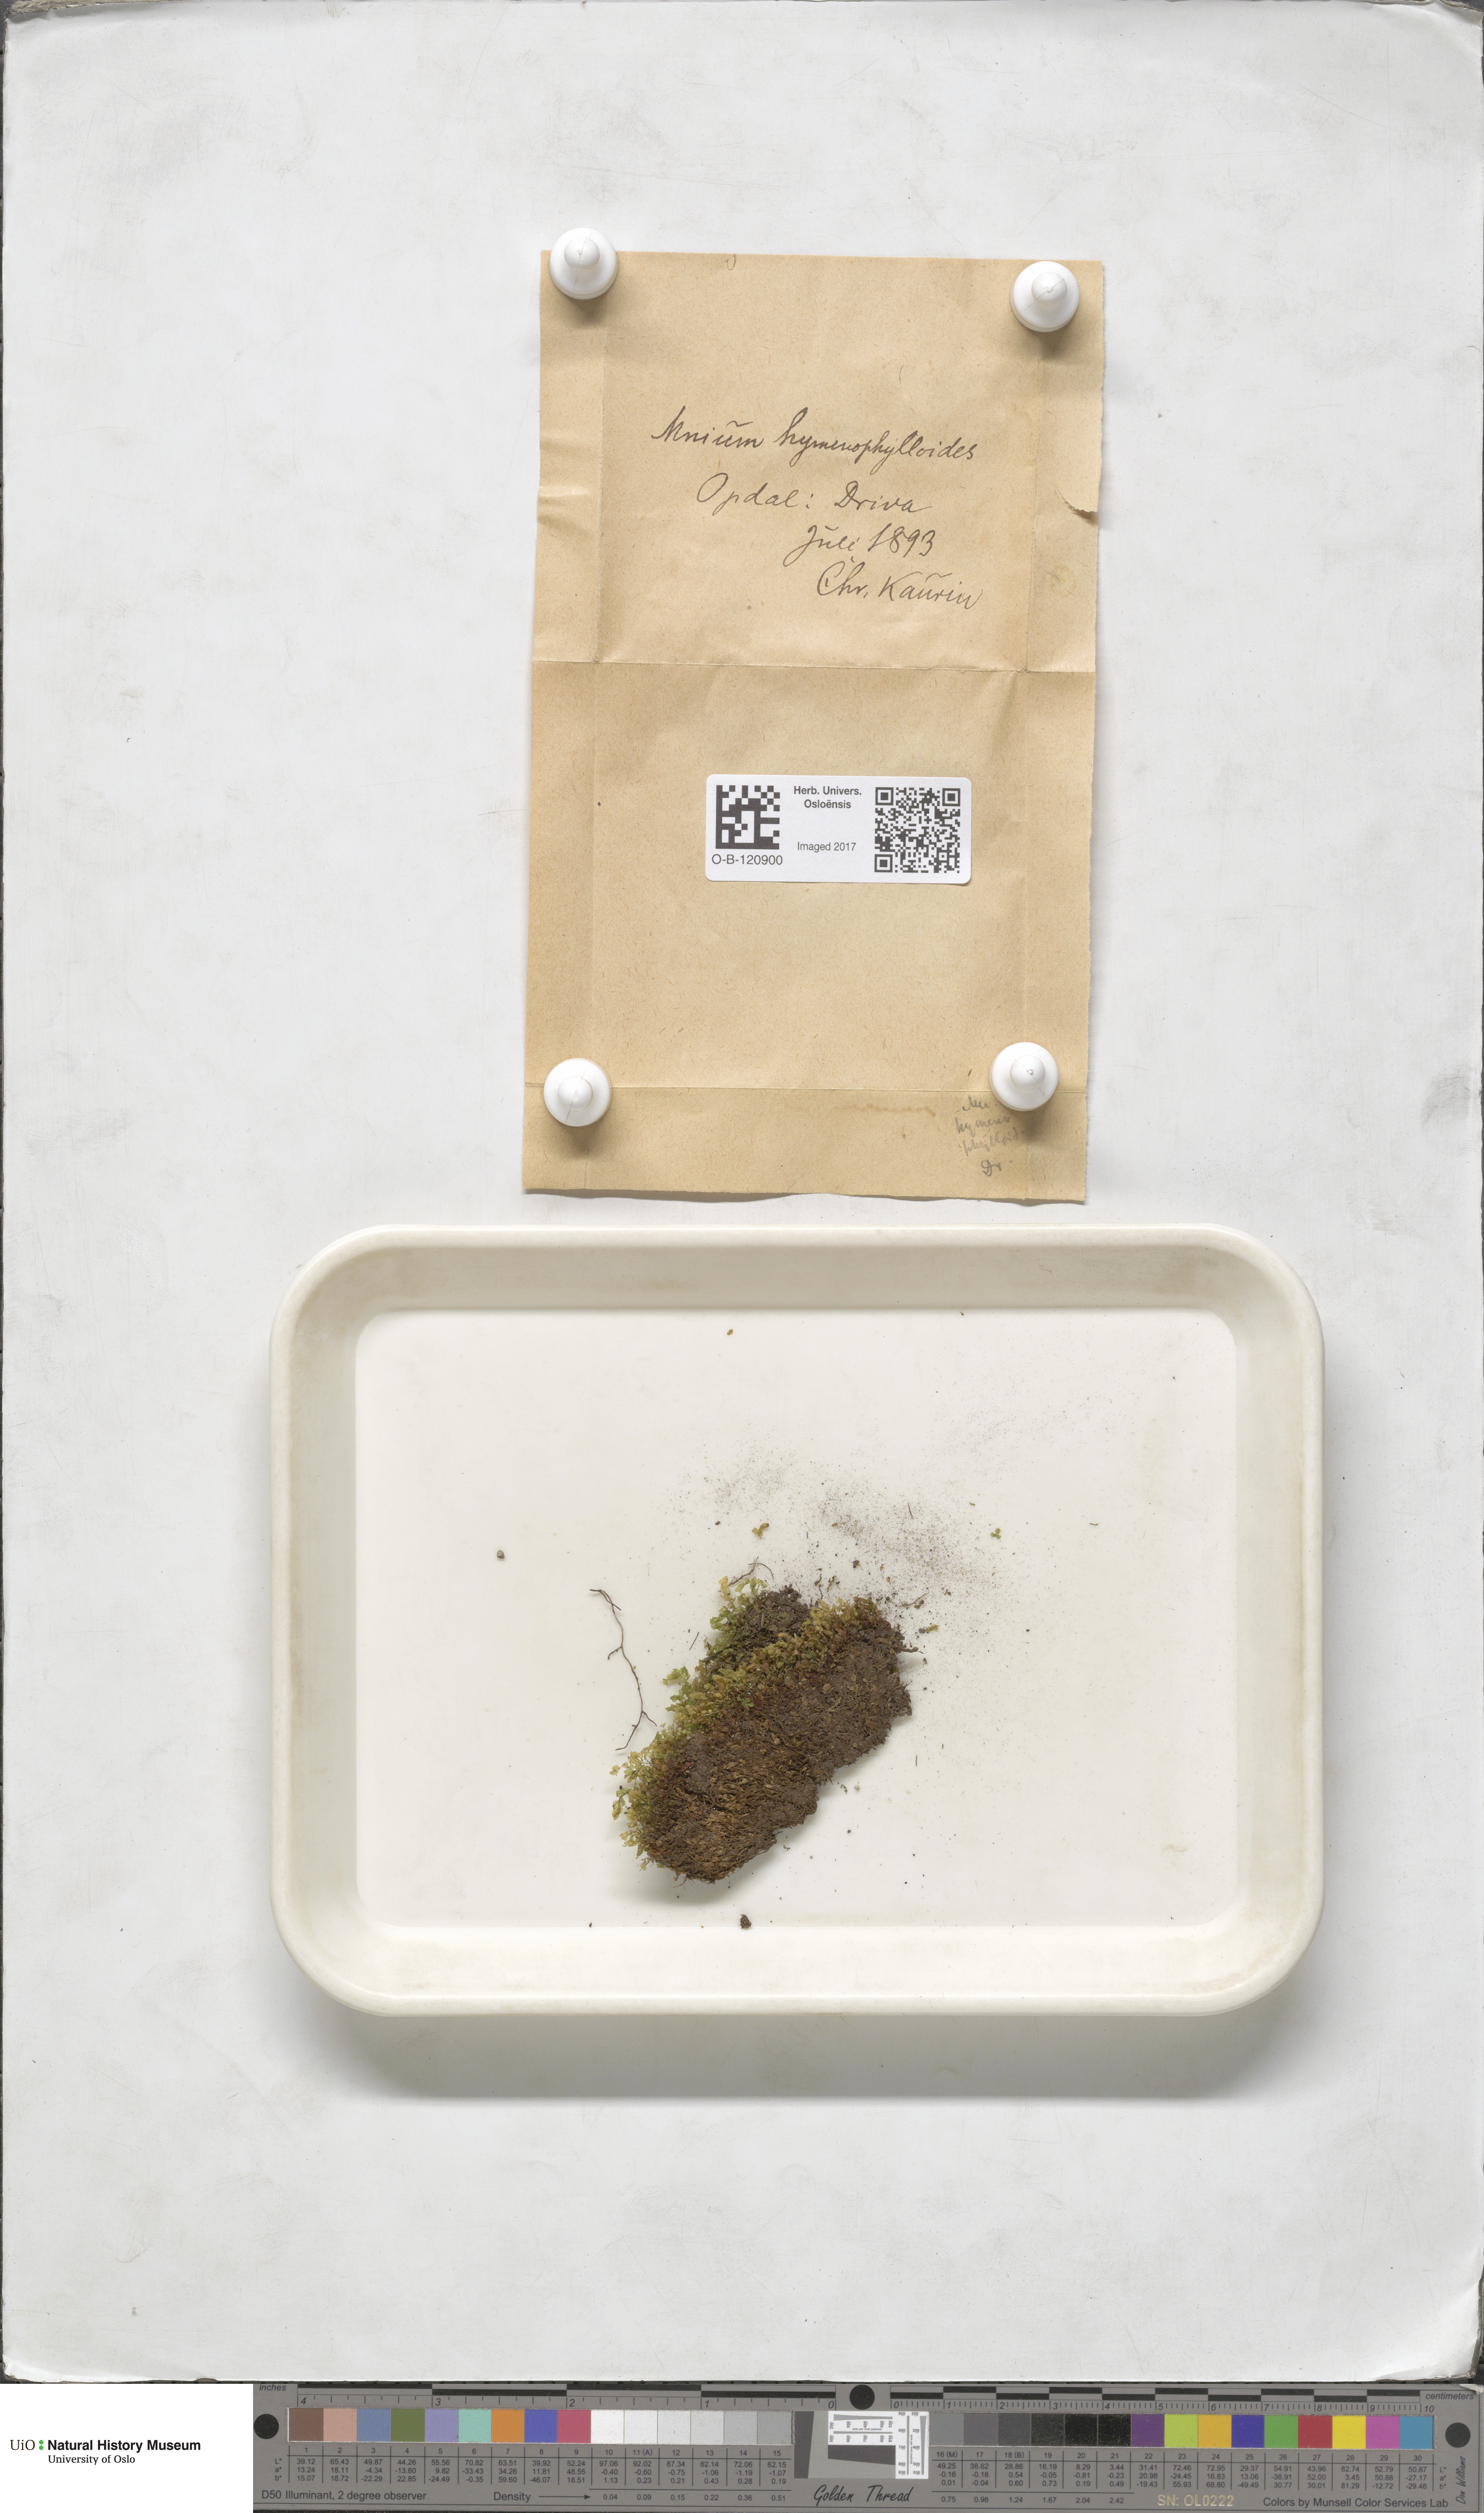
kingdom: Plantae
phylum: Bryophyta
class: Bryopsida
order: Bryales
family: Mniaceae
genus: Cyrtomnium
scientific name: Cyrtomnium hymenophylloides
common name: Short-pointed lantern moss
